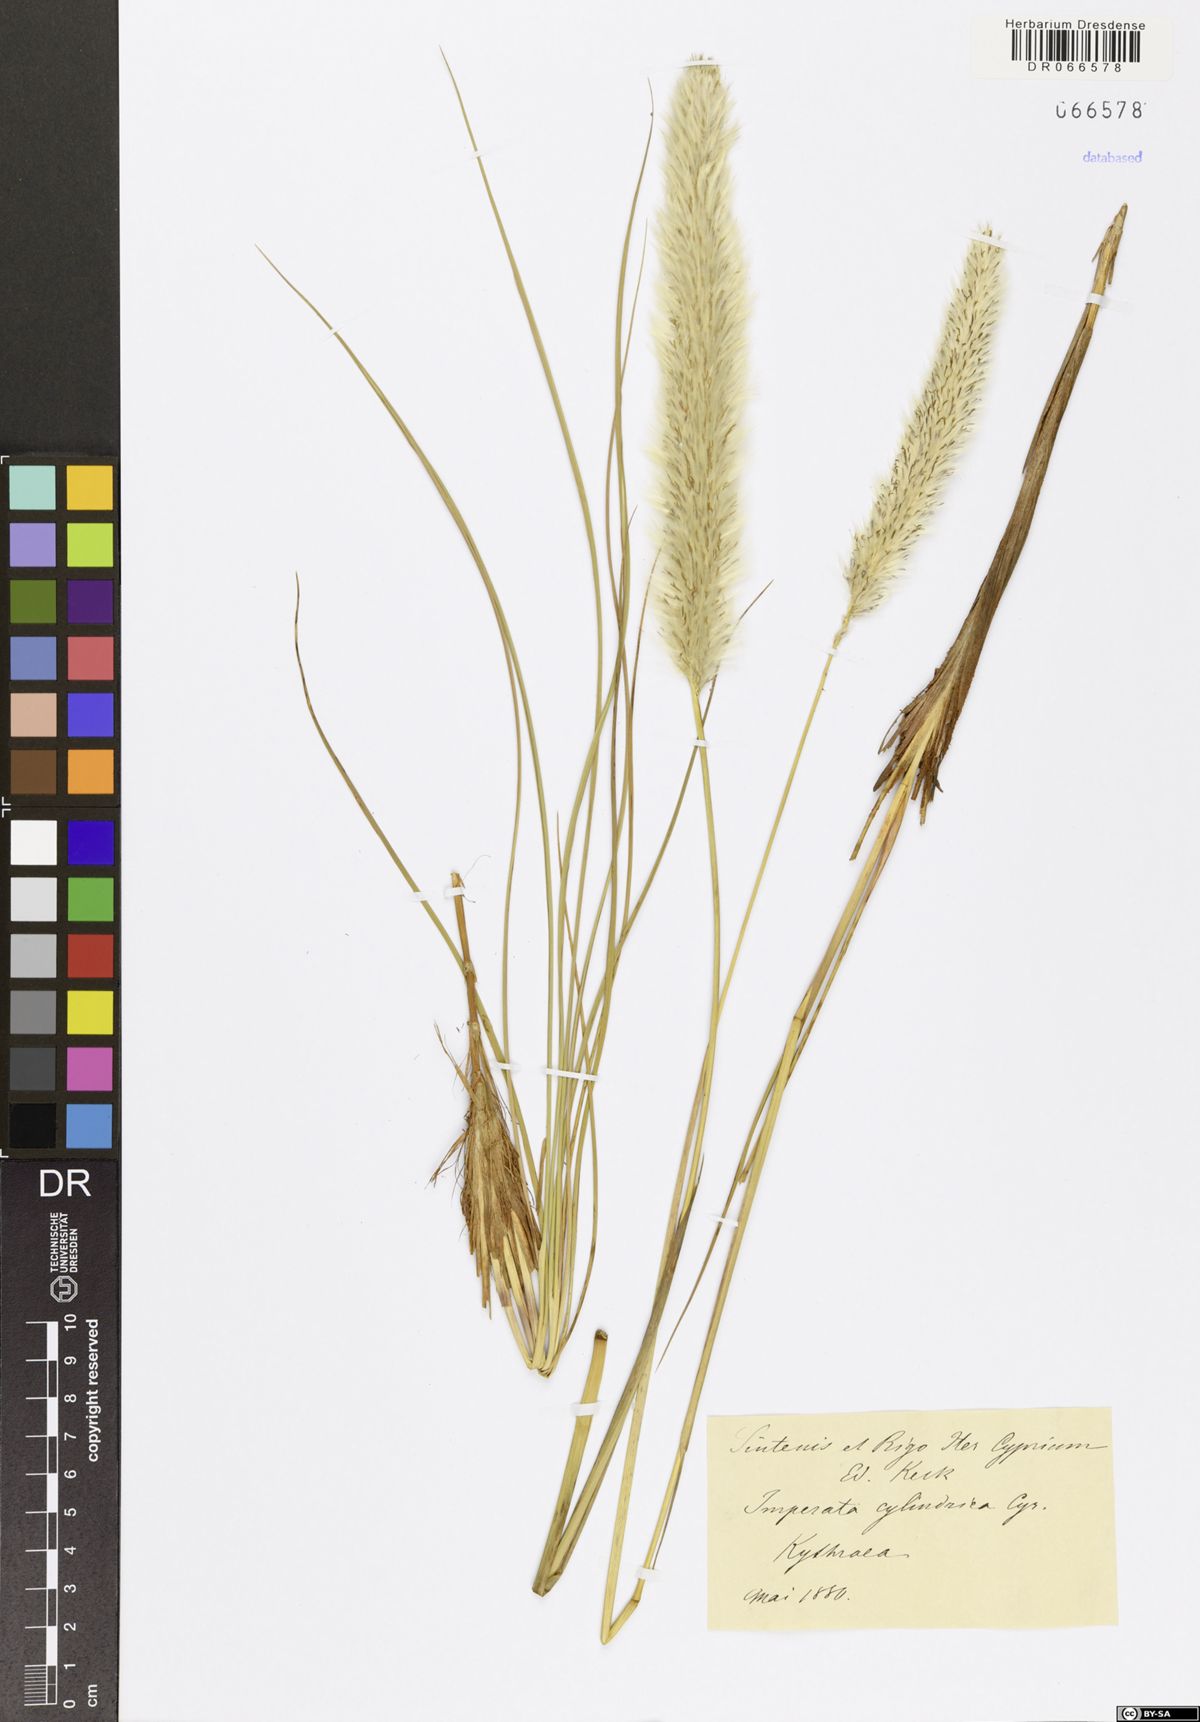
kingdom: Plantae
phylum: Tracheophyta
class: Liliopsida
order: Poales
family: Poaceae
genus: Imperata
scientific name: Imperata cylindrica
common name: Cogongrass
